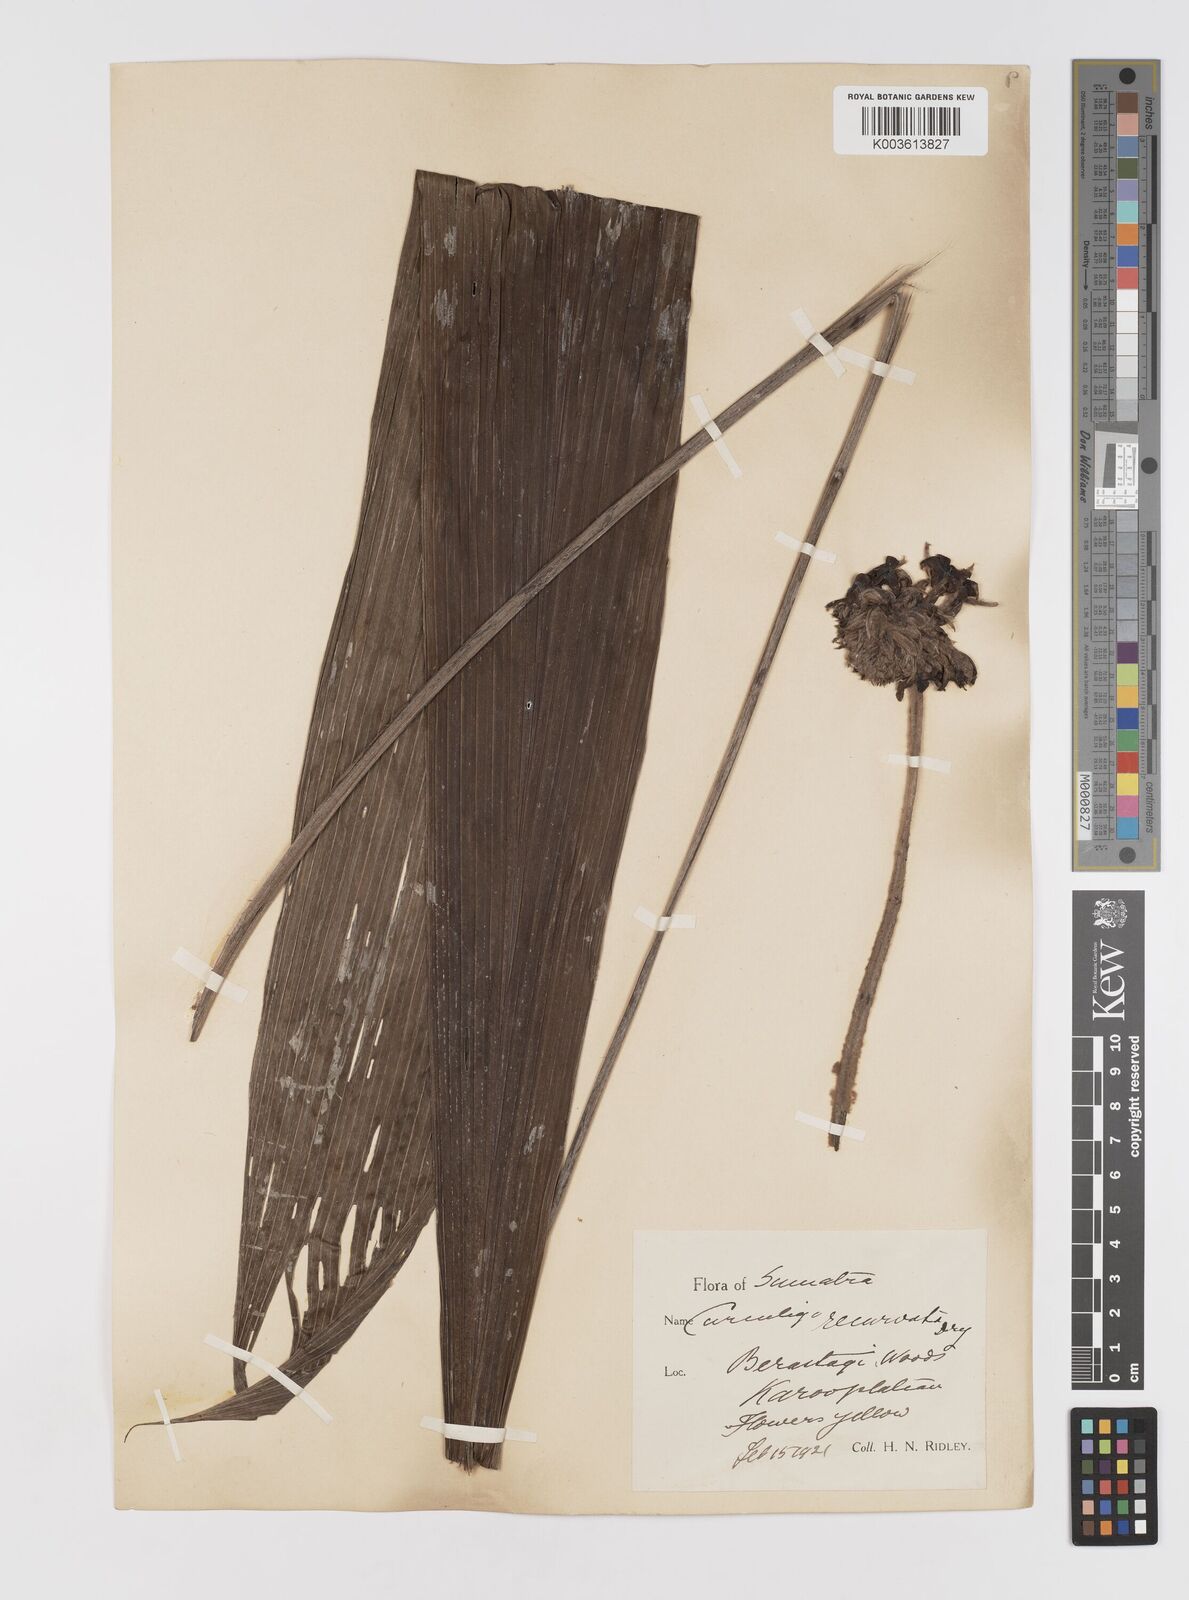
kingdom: Plantae
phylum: Tracheophyta
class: Liliopsida
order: Asparagales
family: Hypoxidaceae
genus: Curculigo
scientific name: Curculigo capitulata
